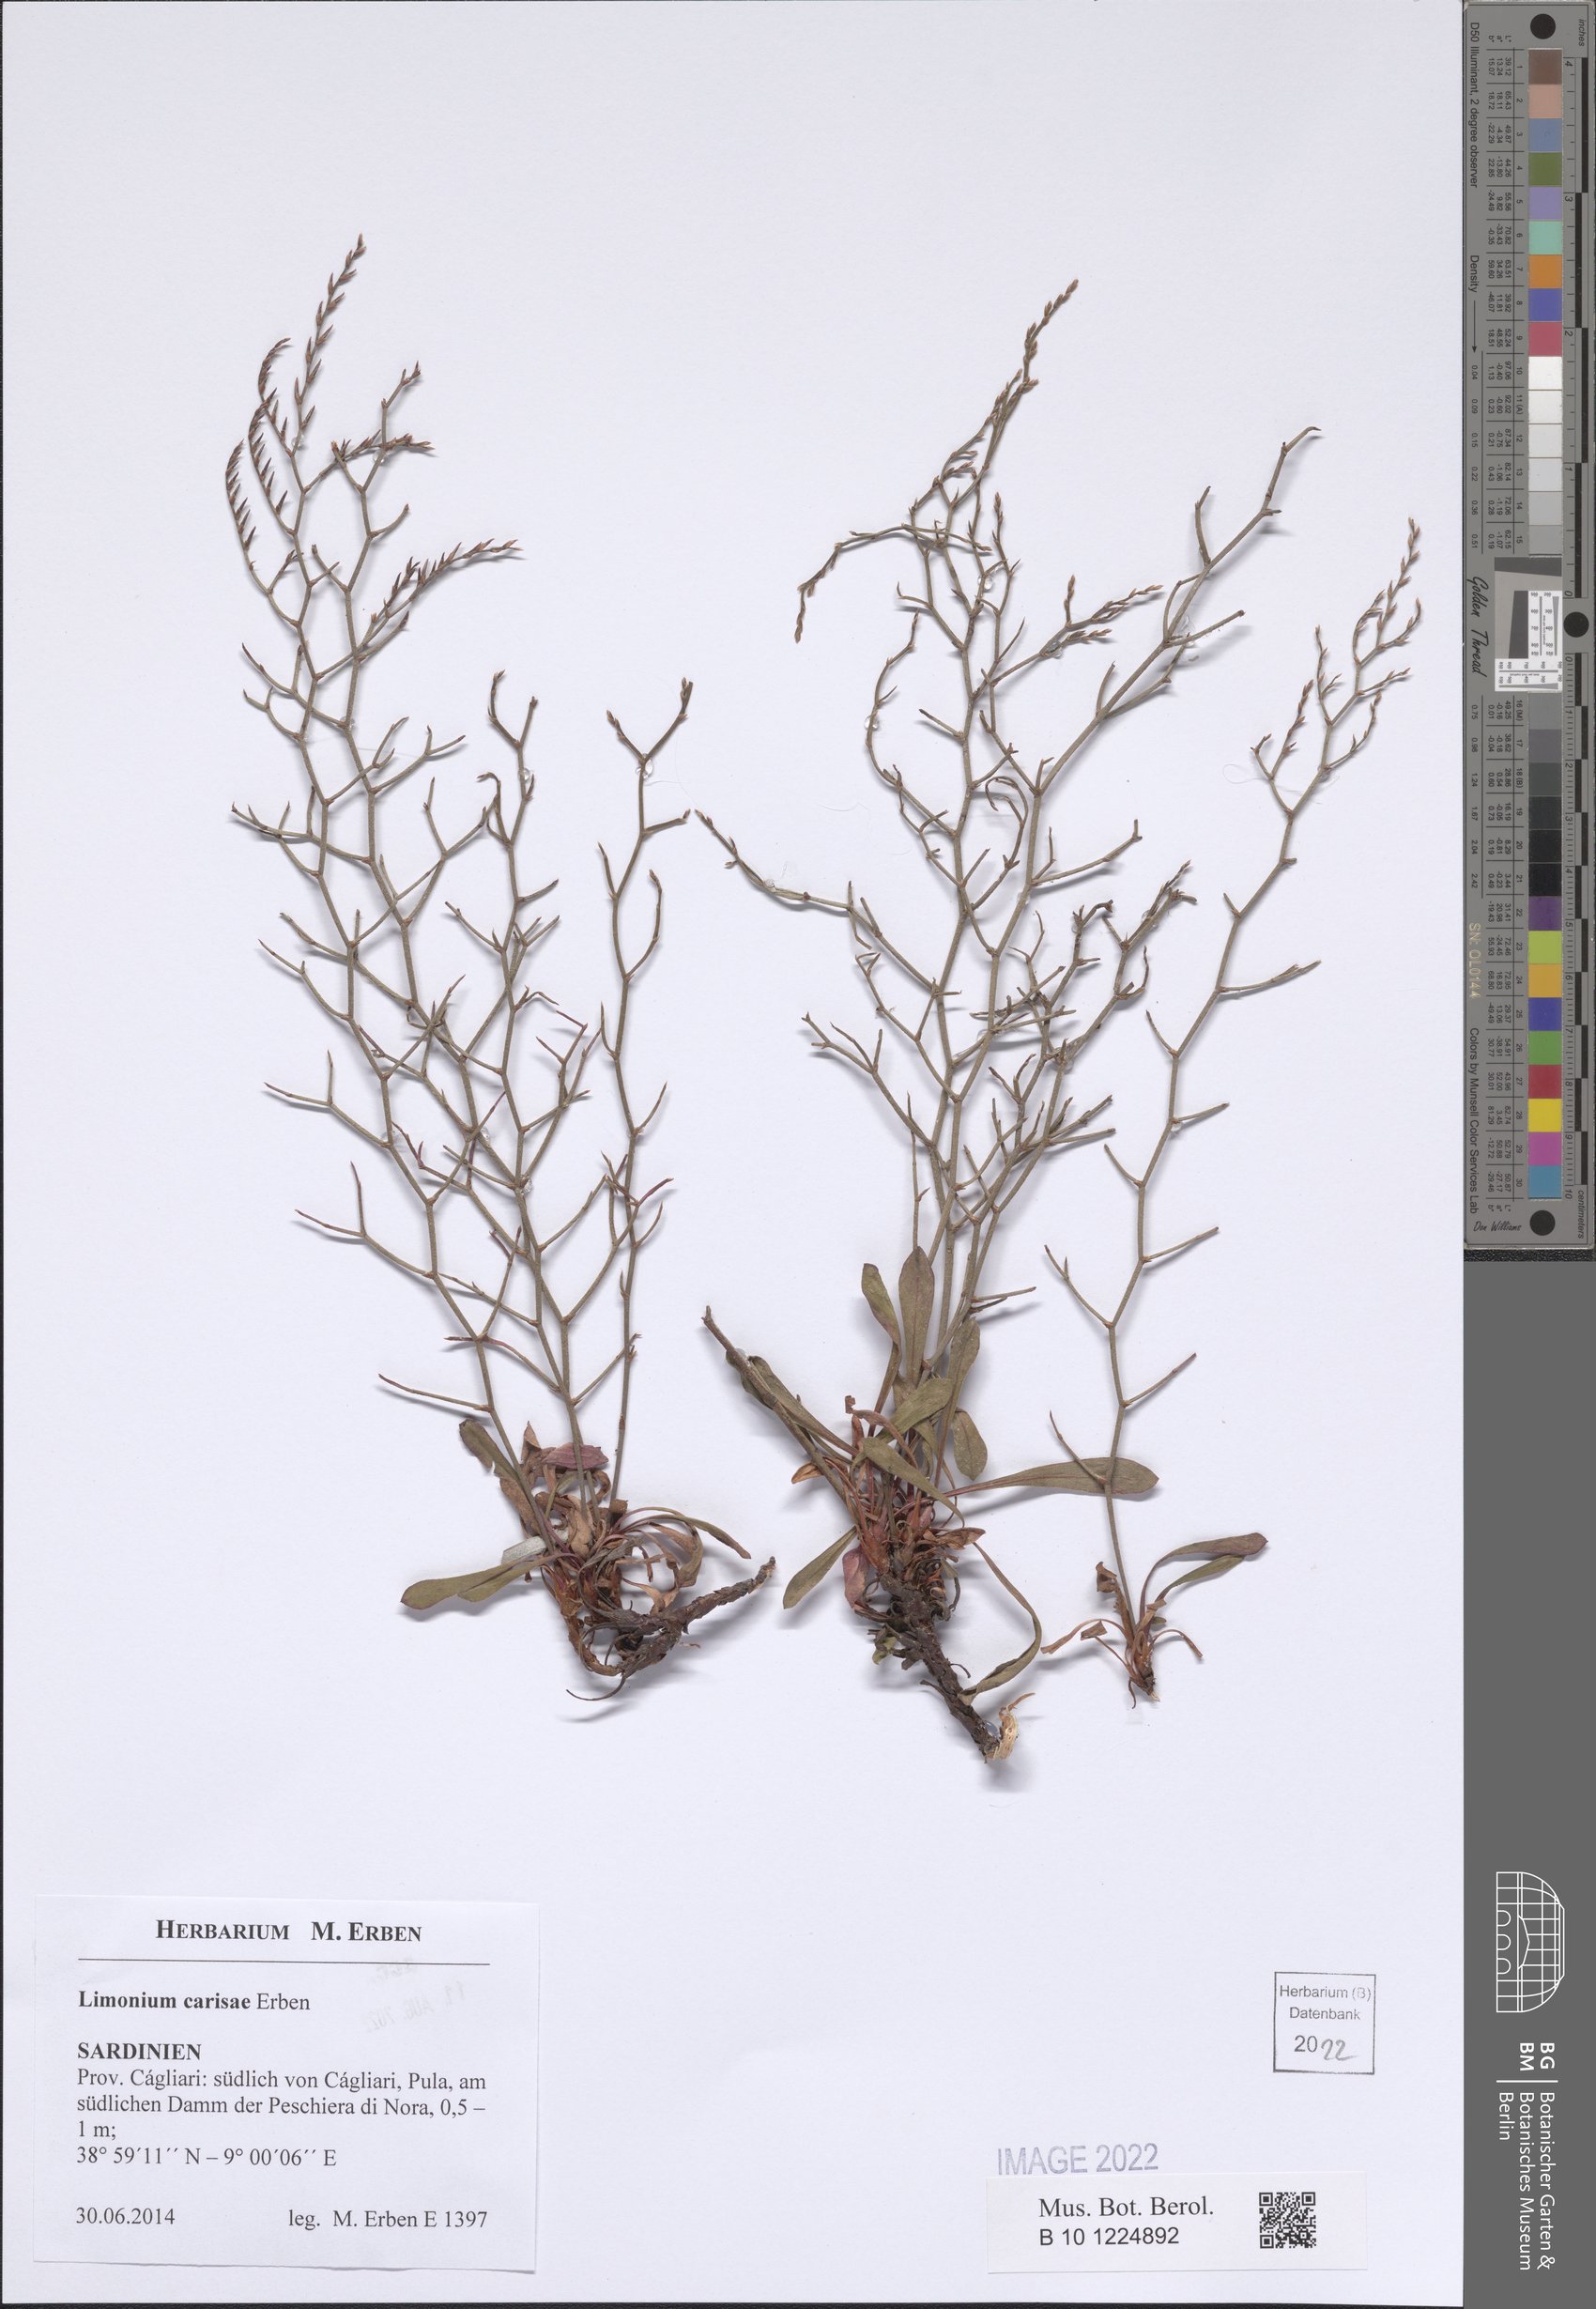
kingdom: Plantae
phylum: Tracheophyta
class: Magnoliopsida
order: Caryophyllales
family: Plumbaginaceae
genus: Limonium
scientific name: Limonium carisae
